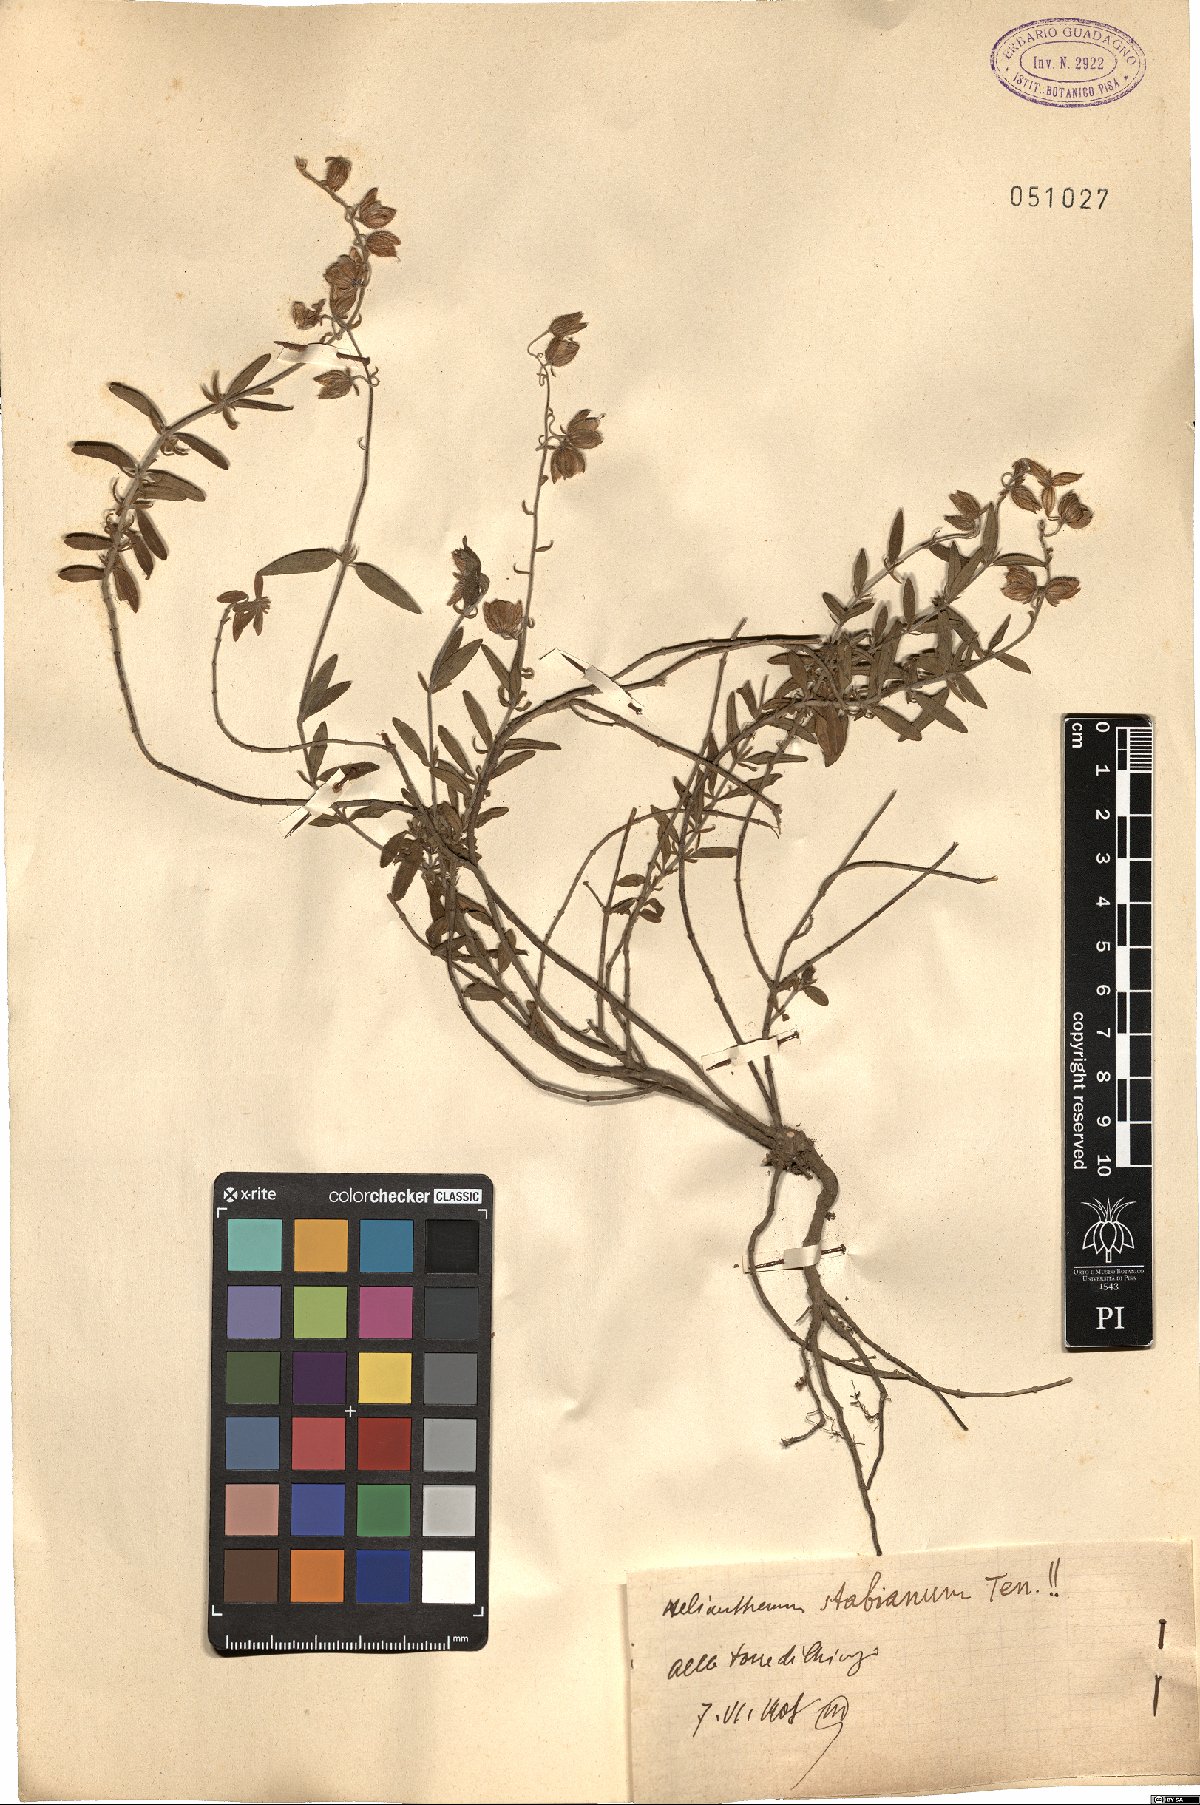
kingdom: Plantae
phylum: Tracheophyta
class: Magnoliopsida
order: Malvales
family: Cistaceae
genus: Helianthemum
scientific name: Helianthemum croceum
